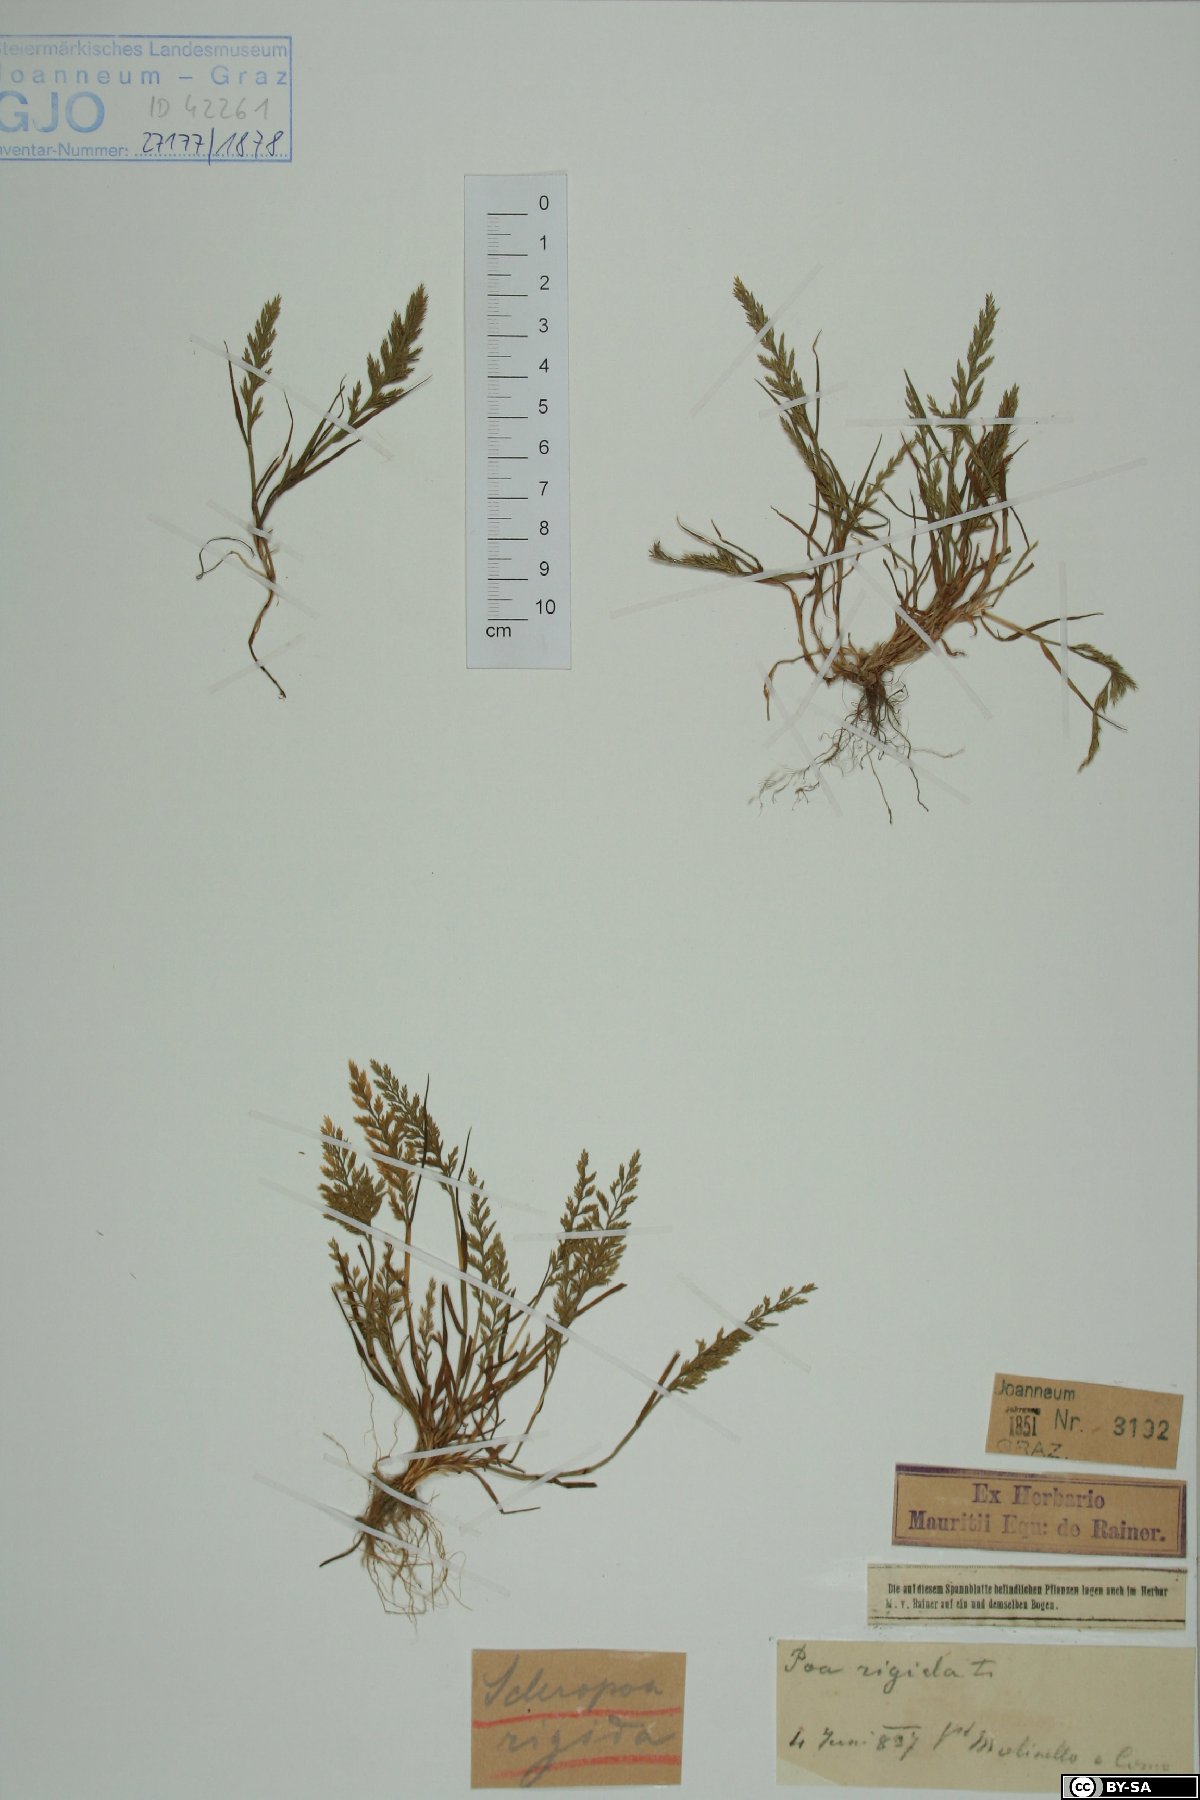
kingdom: Plantae
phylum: Tracheophyta
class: Liliopsida
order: Poales
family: Poaceae
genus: Catapodium
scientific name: Catapodium rigidum
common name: Fern-grass
